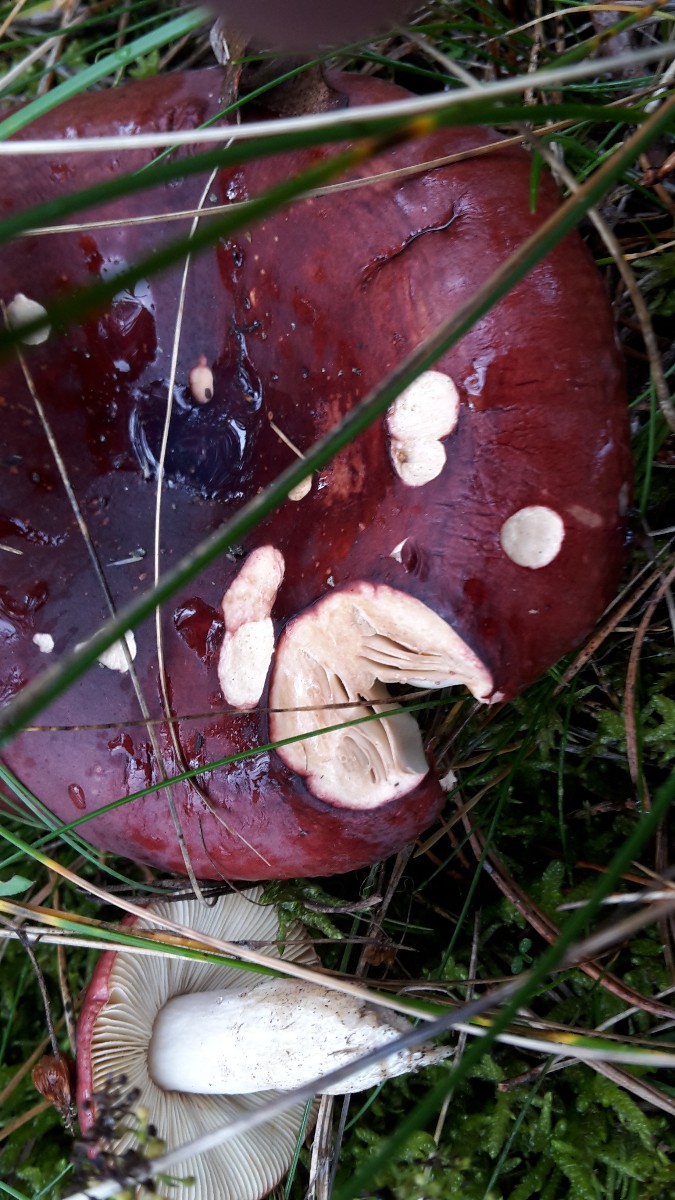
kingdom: Fungi
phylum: Basidiomycota
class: Agaricomycetes
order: Russulales
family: Russulaceae
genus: Russula
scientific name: Russula xerampelina
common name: hummer-skørhat
